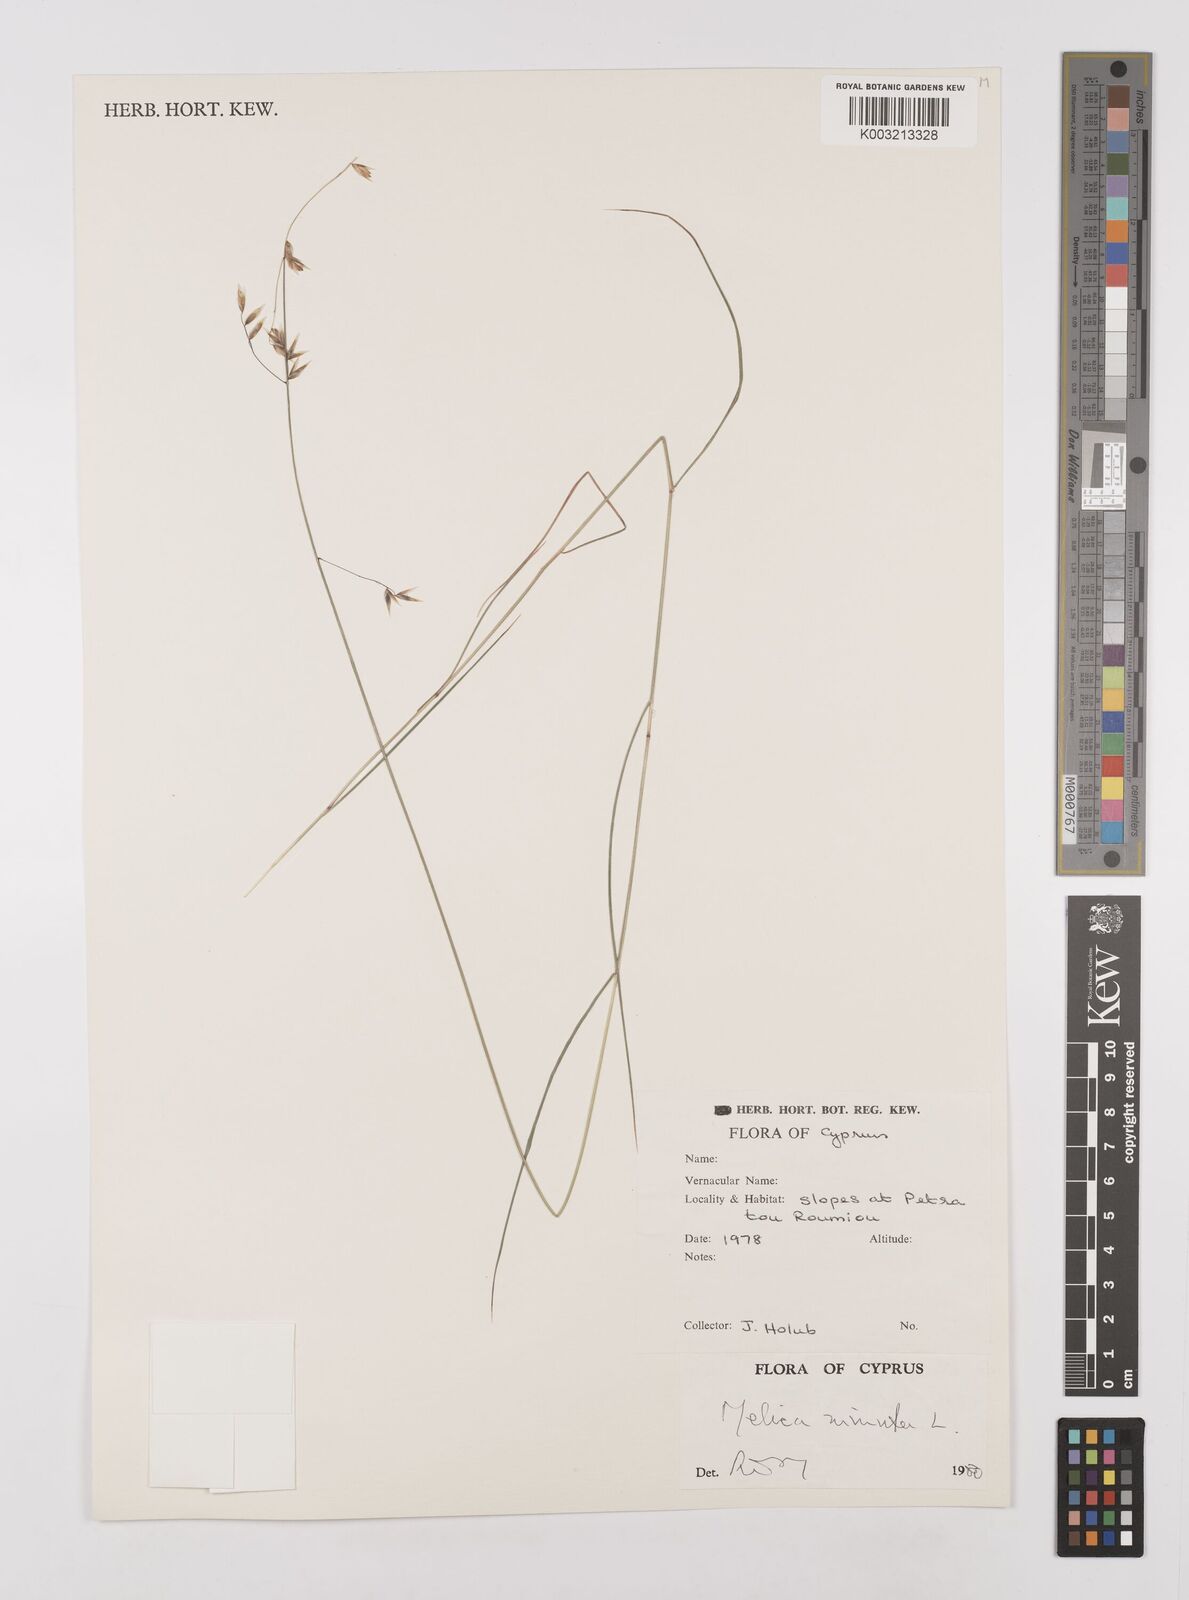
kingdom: Plantae
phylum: Tracheophyta
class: Liliopsida
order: Poales
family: Poaceae
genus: Melica
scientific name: Melica minuta
